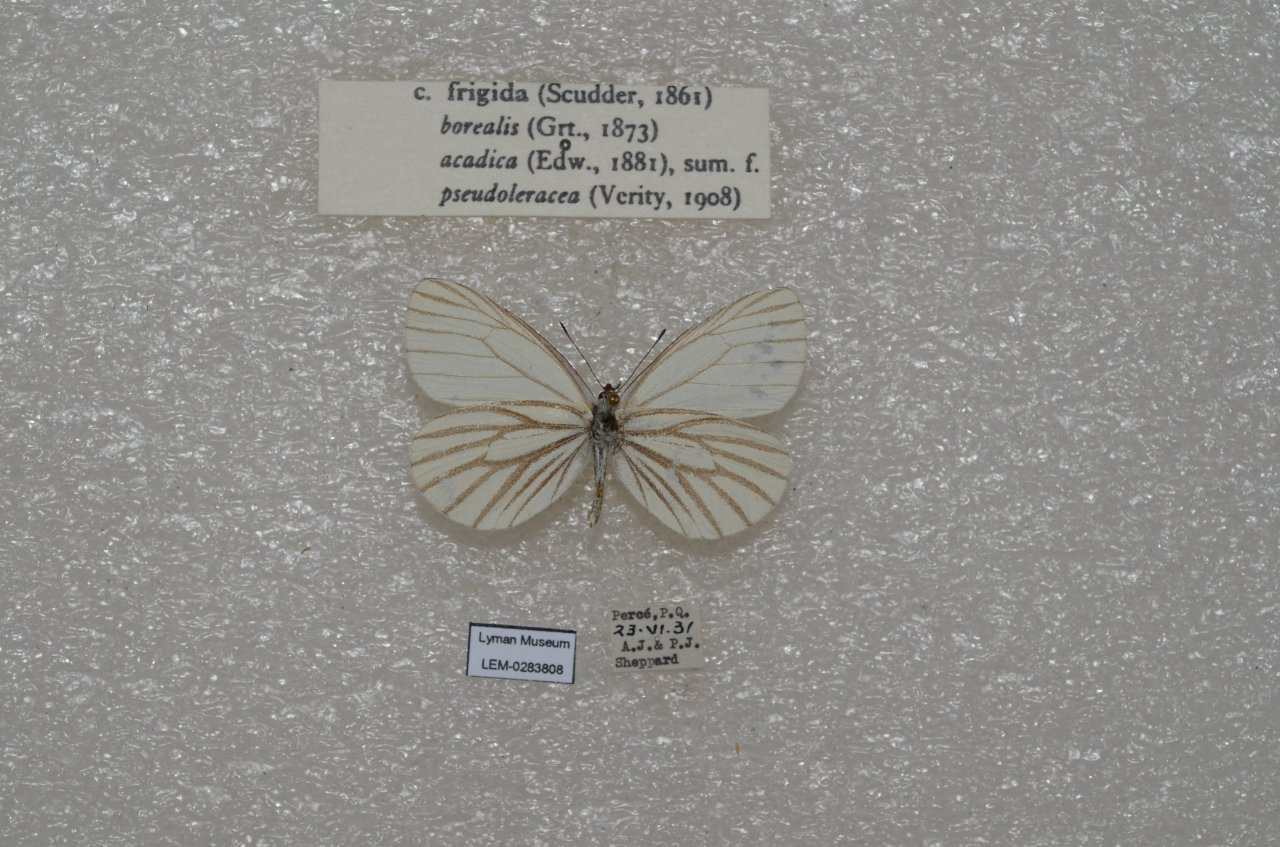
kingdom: Animalia
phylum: Arthropoda
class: Insecta
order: Lepidoptera
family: Pieridae
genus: Pieris
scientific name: Pieris oleracea
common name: Mustard White
